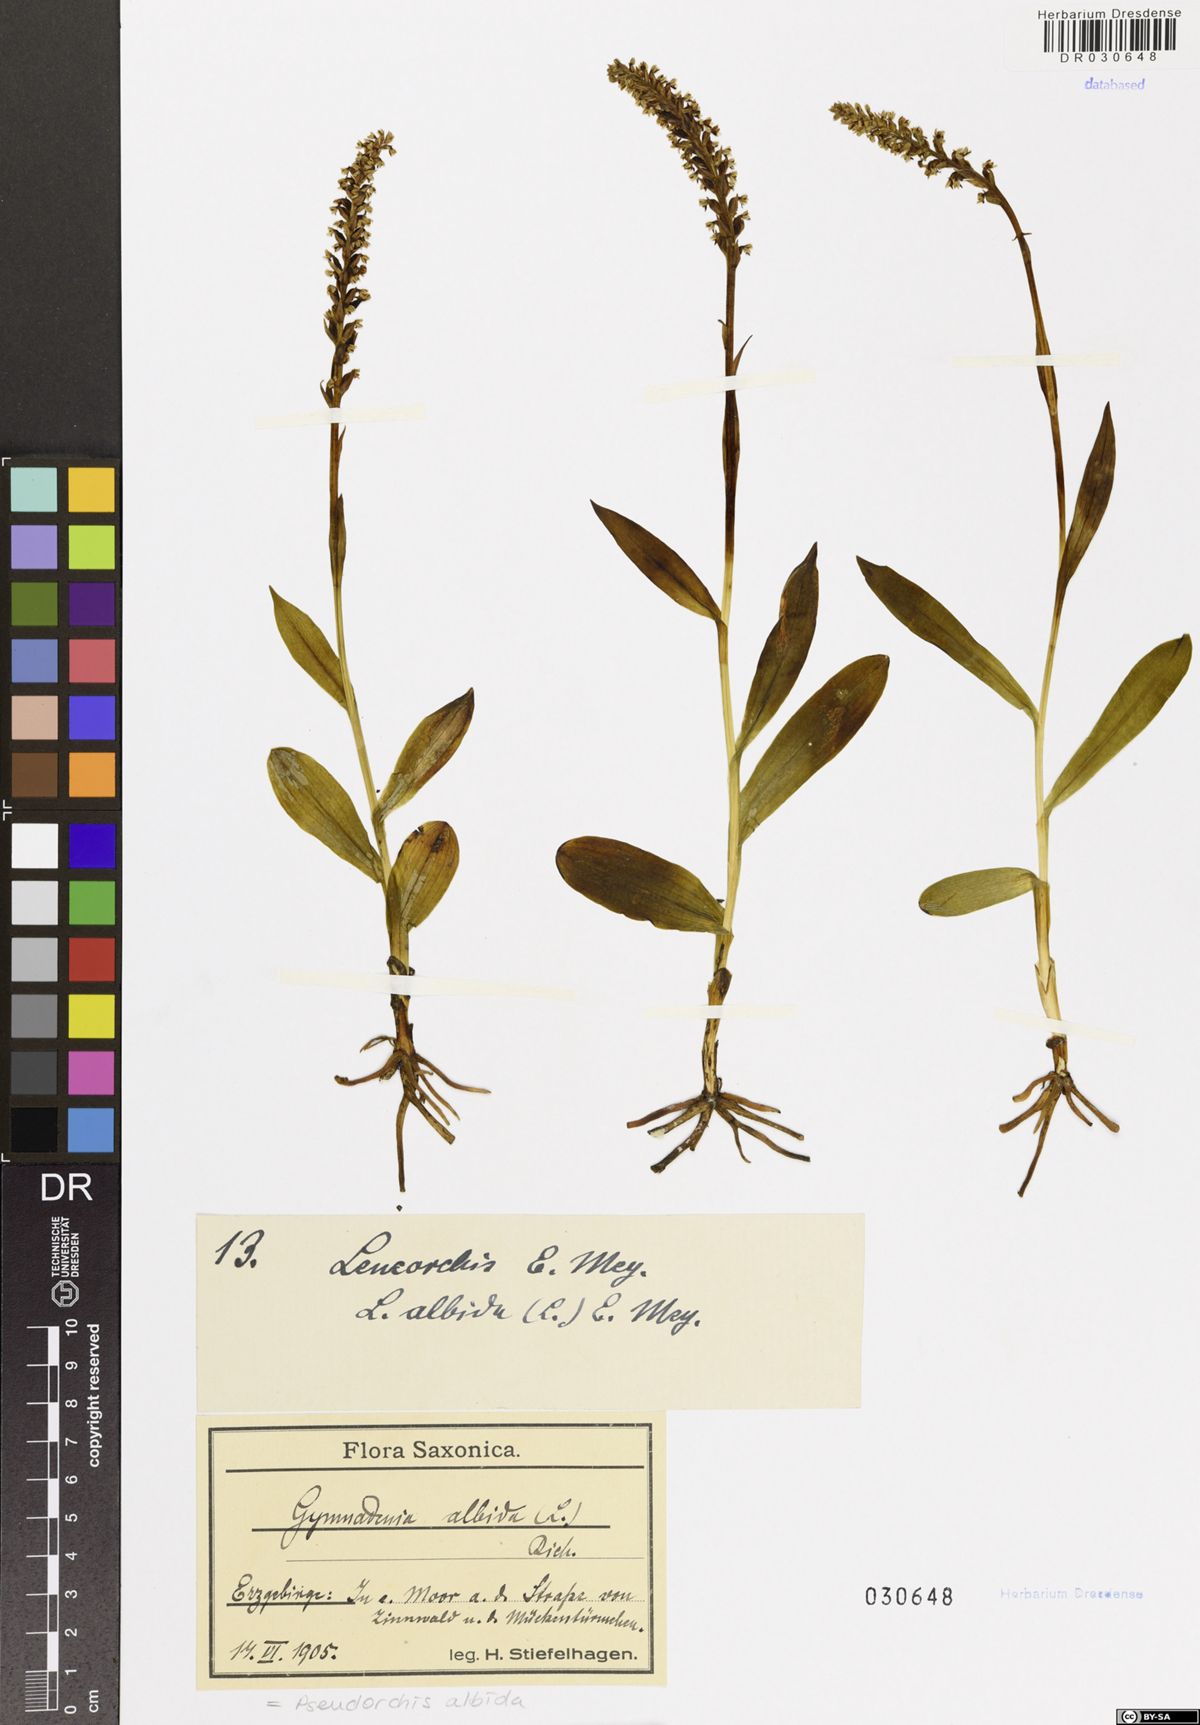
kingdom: Plantae
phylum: Tracheophyta
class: Liliopsida
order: Asparagales
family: Orchidaceae
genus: Pseudorchis
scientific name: Pseudorchis albida
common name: Small-white orchid
